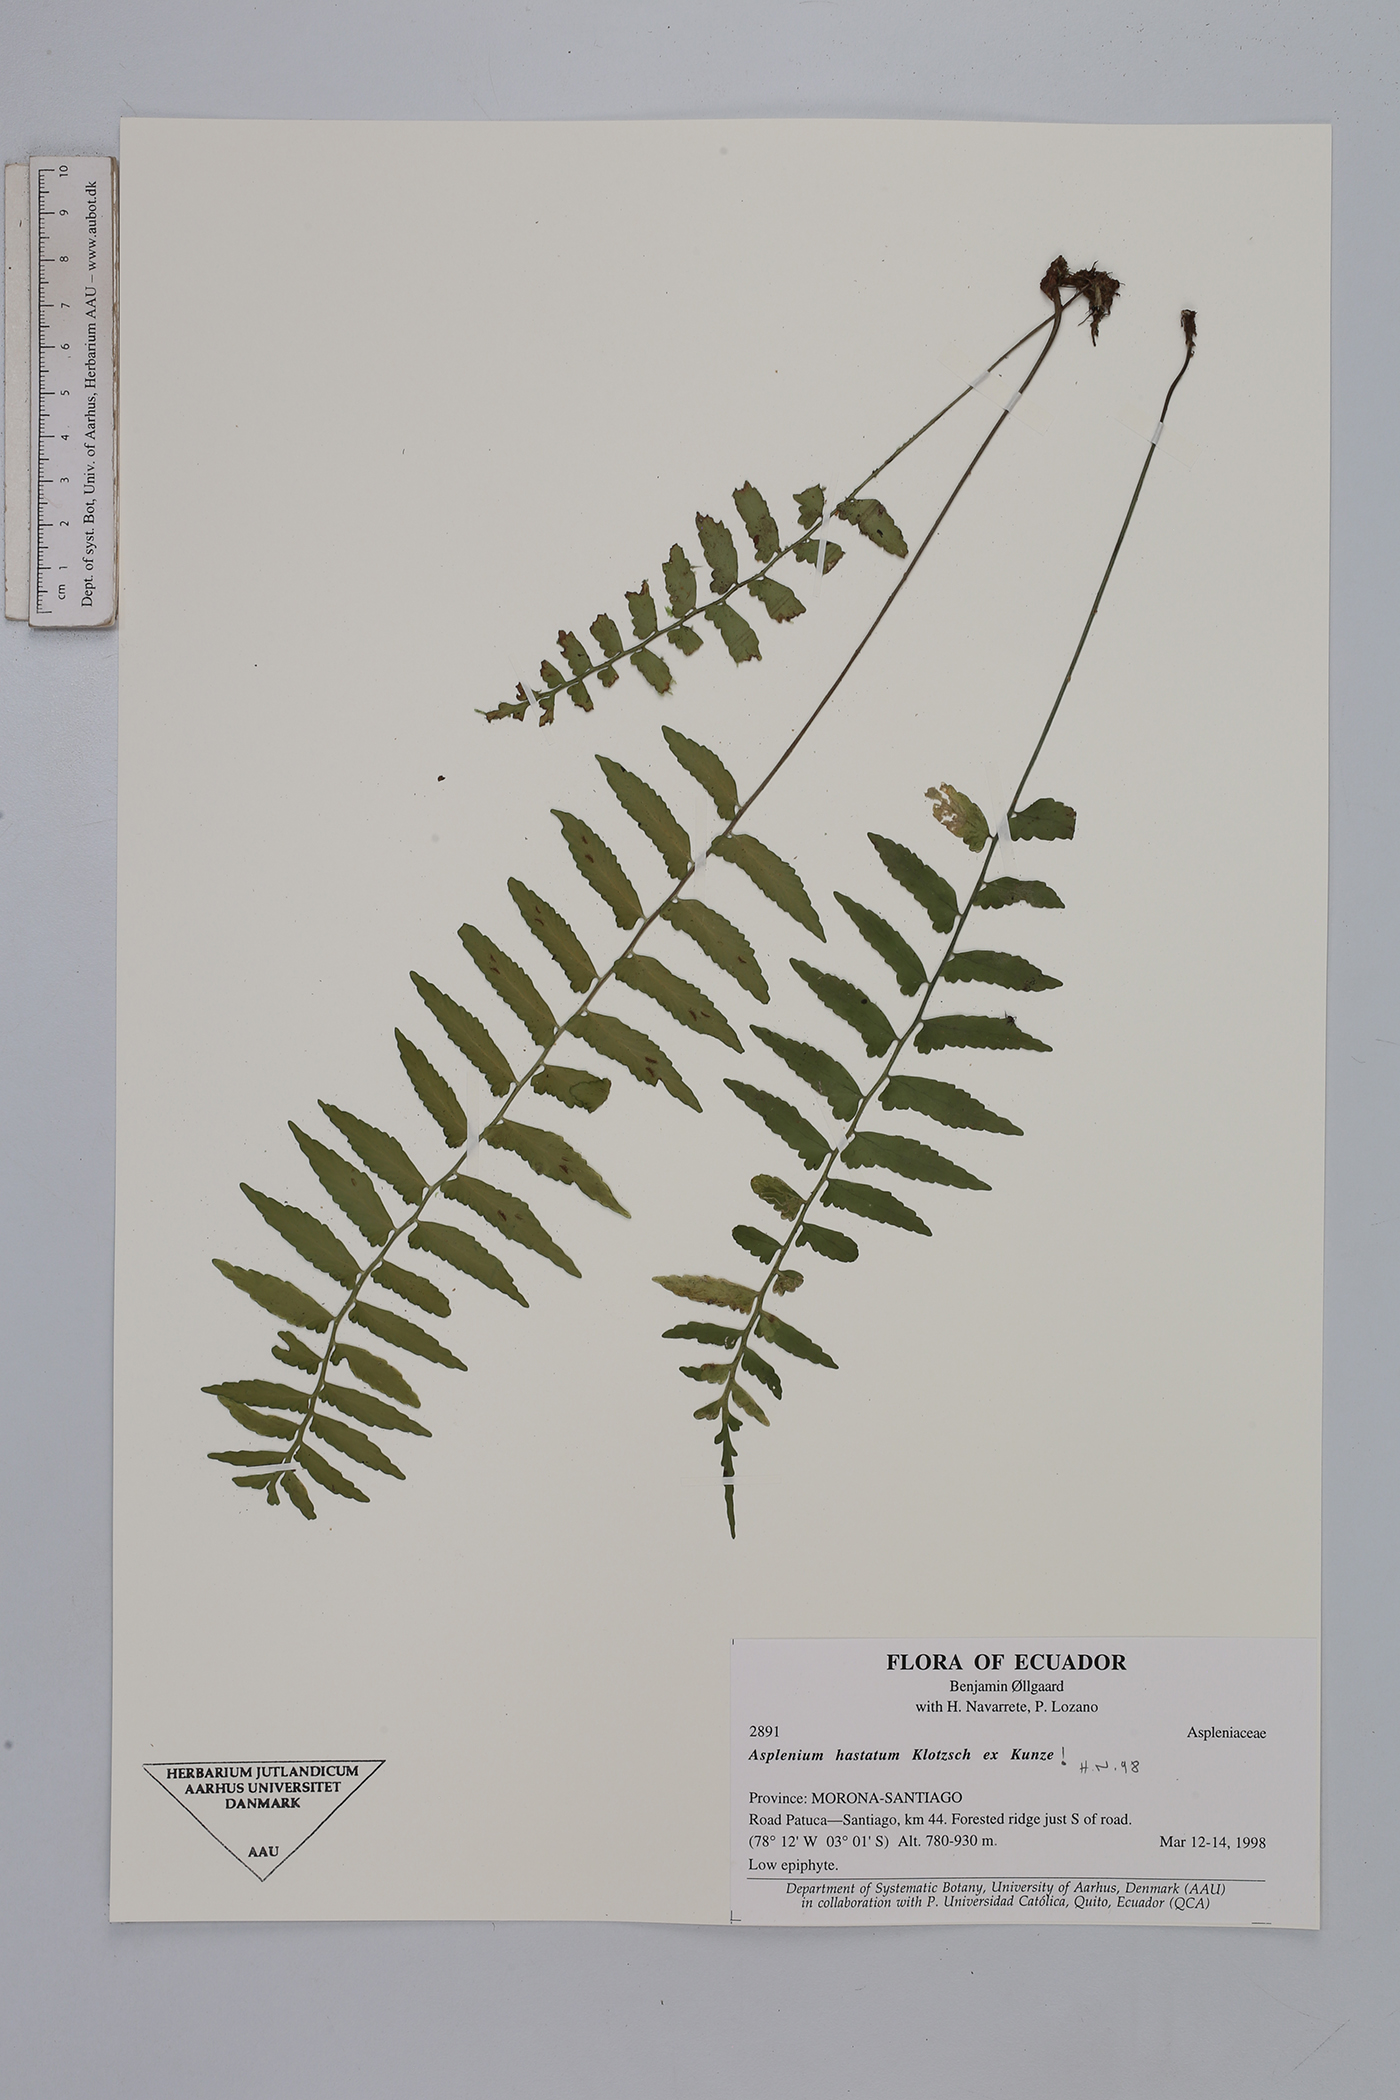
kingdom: Plantae
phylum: Tracheophyta
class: Polypodiopsida
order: Polypodiales
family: Aspleniaceae
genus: Asplenium
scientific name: Asplenium hastatum
